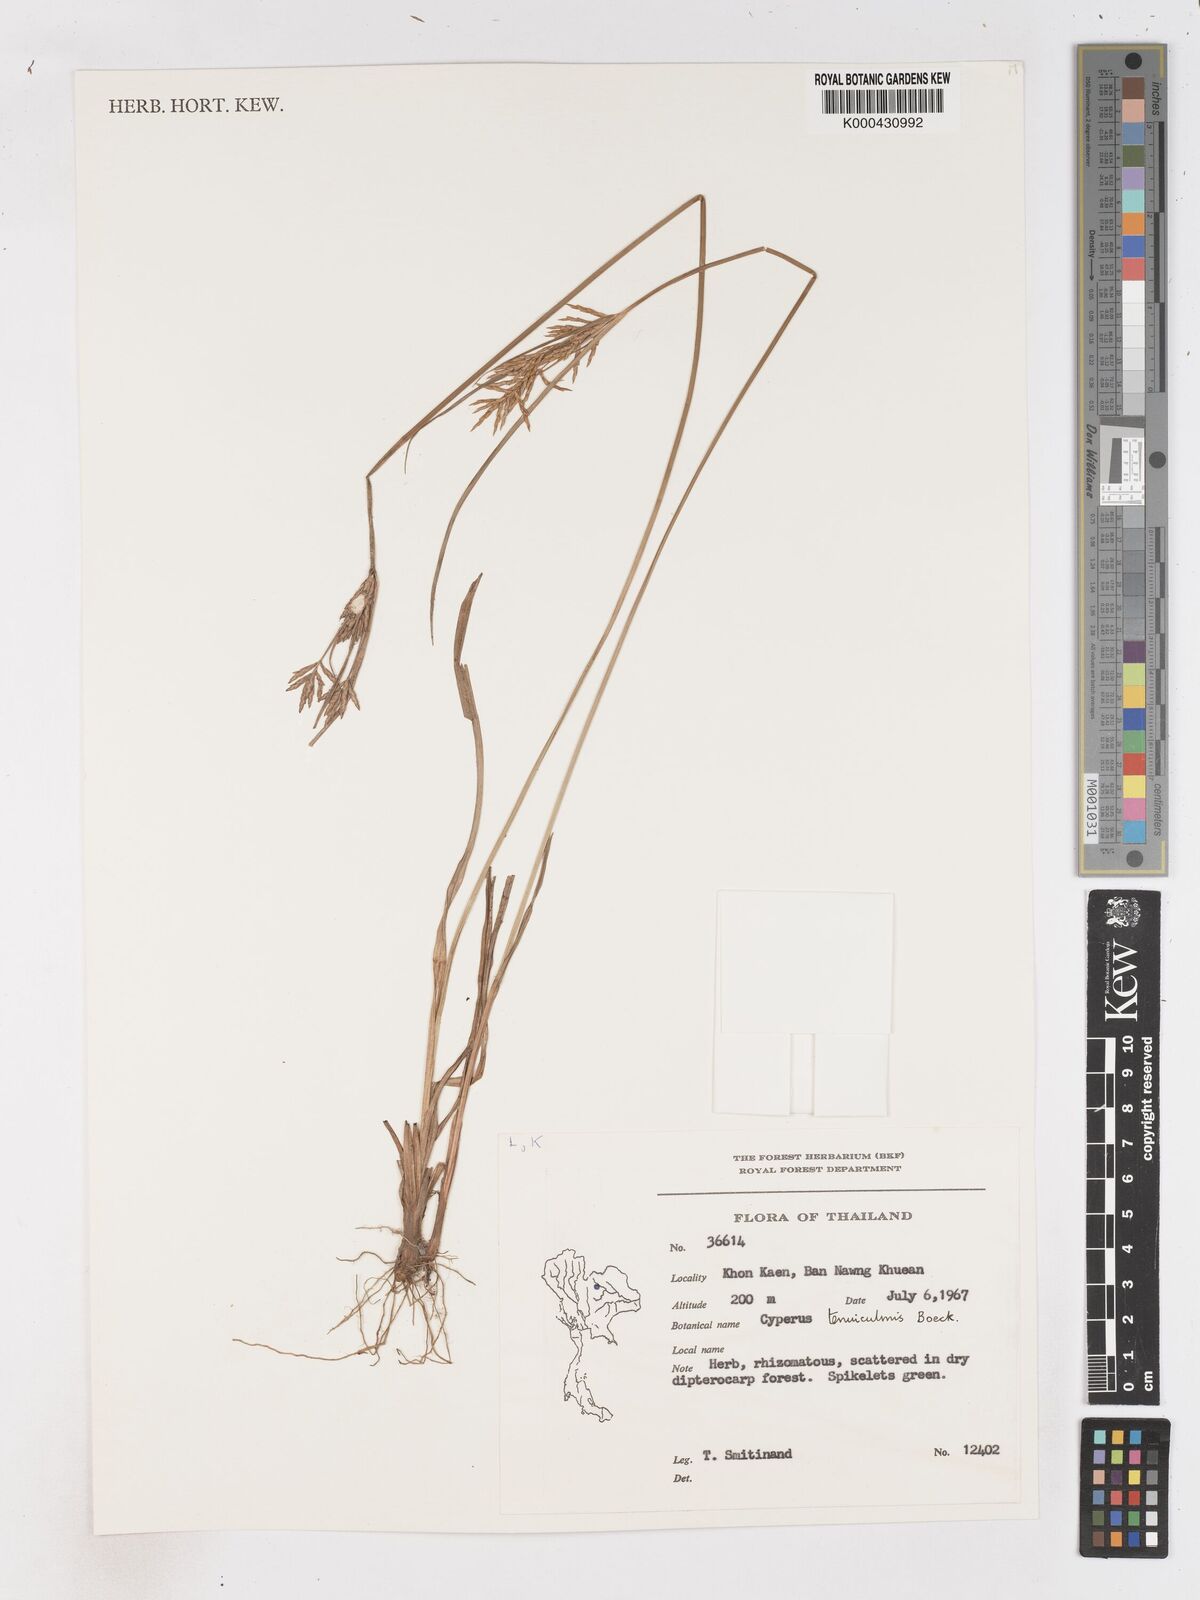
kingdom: Plantae
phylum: Tracheophyta
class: Liliopsida
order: Poales
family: Cyperaceae
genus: Cyperus
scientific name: Cyperus tenuiculmis
